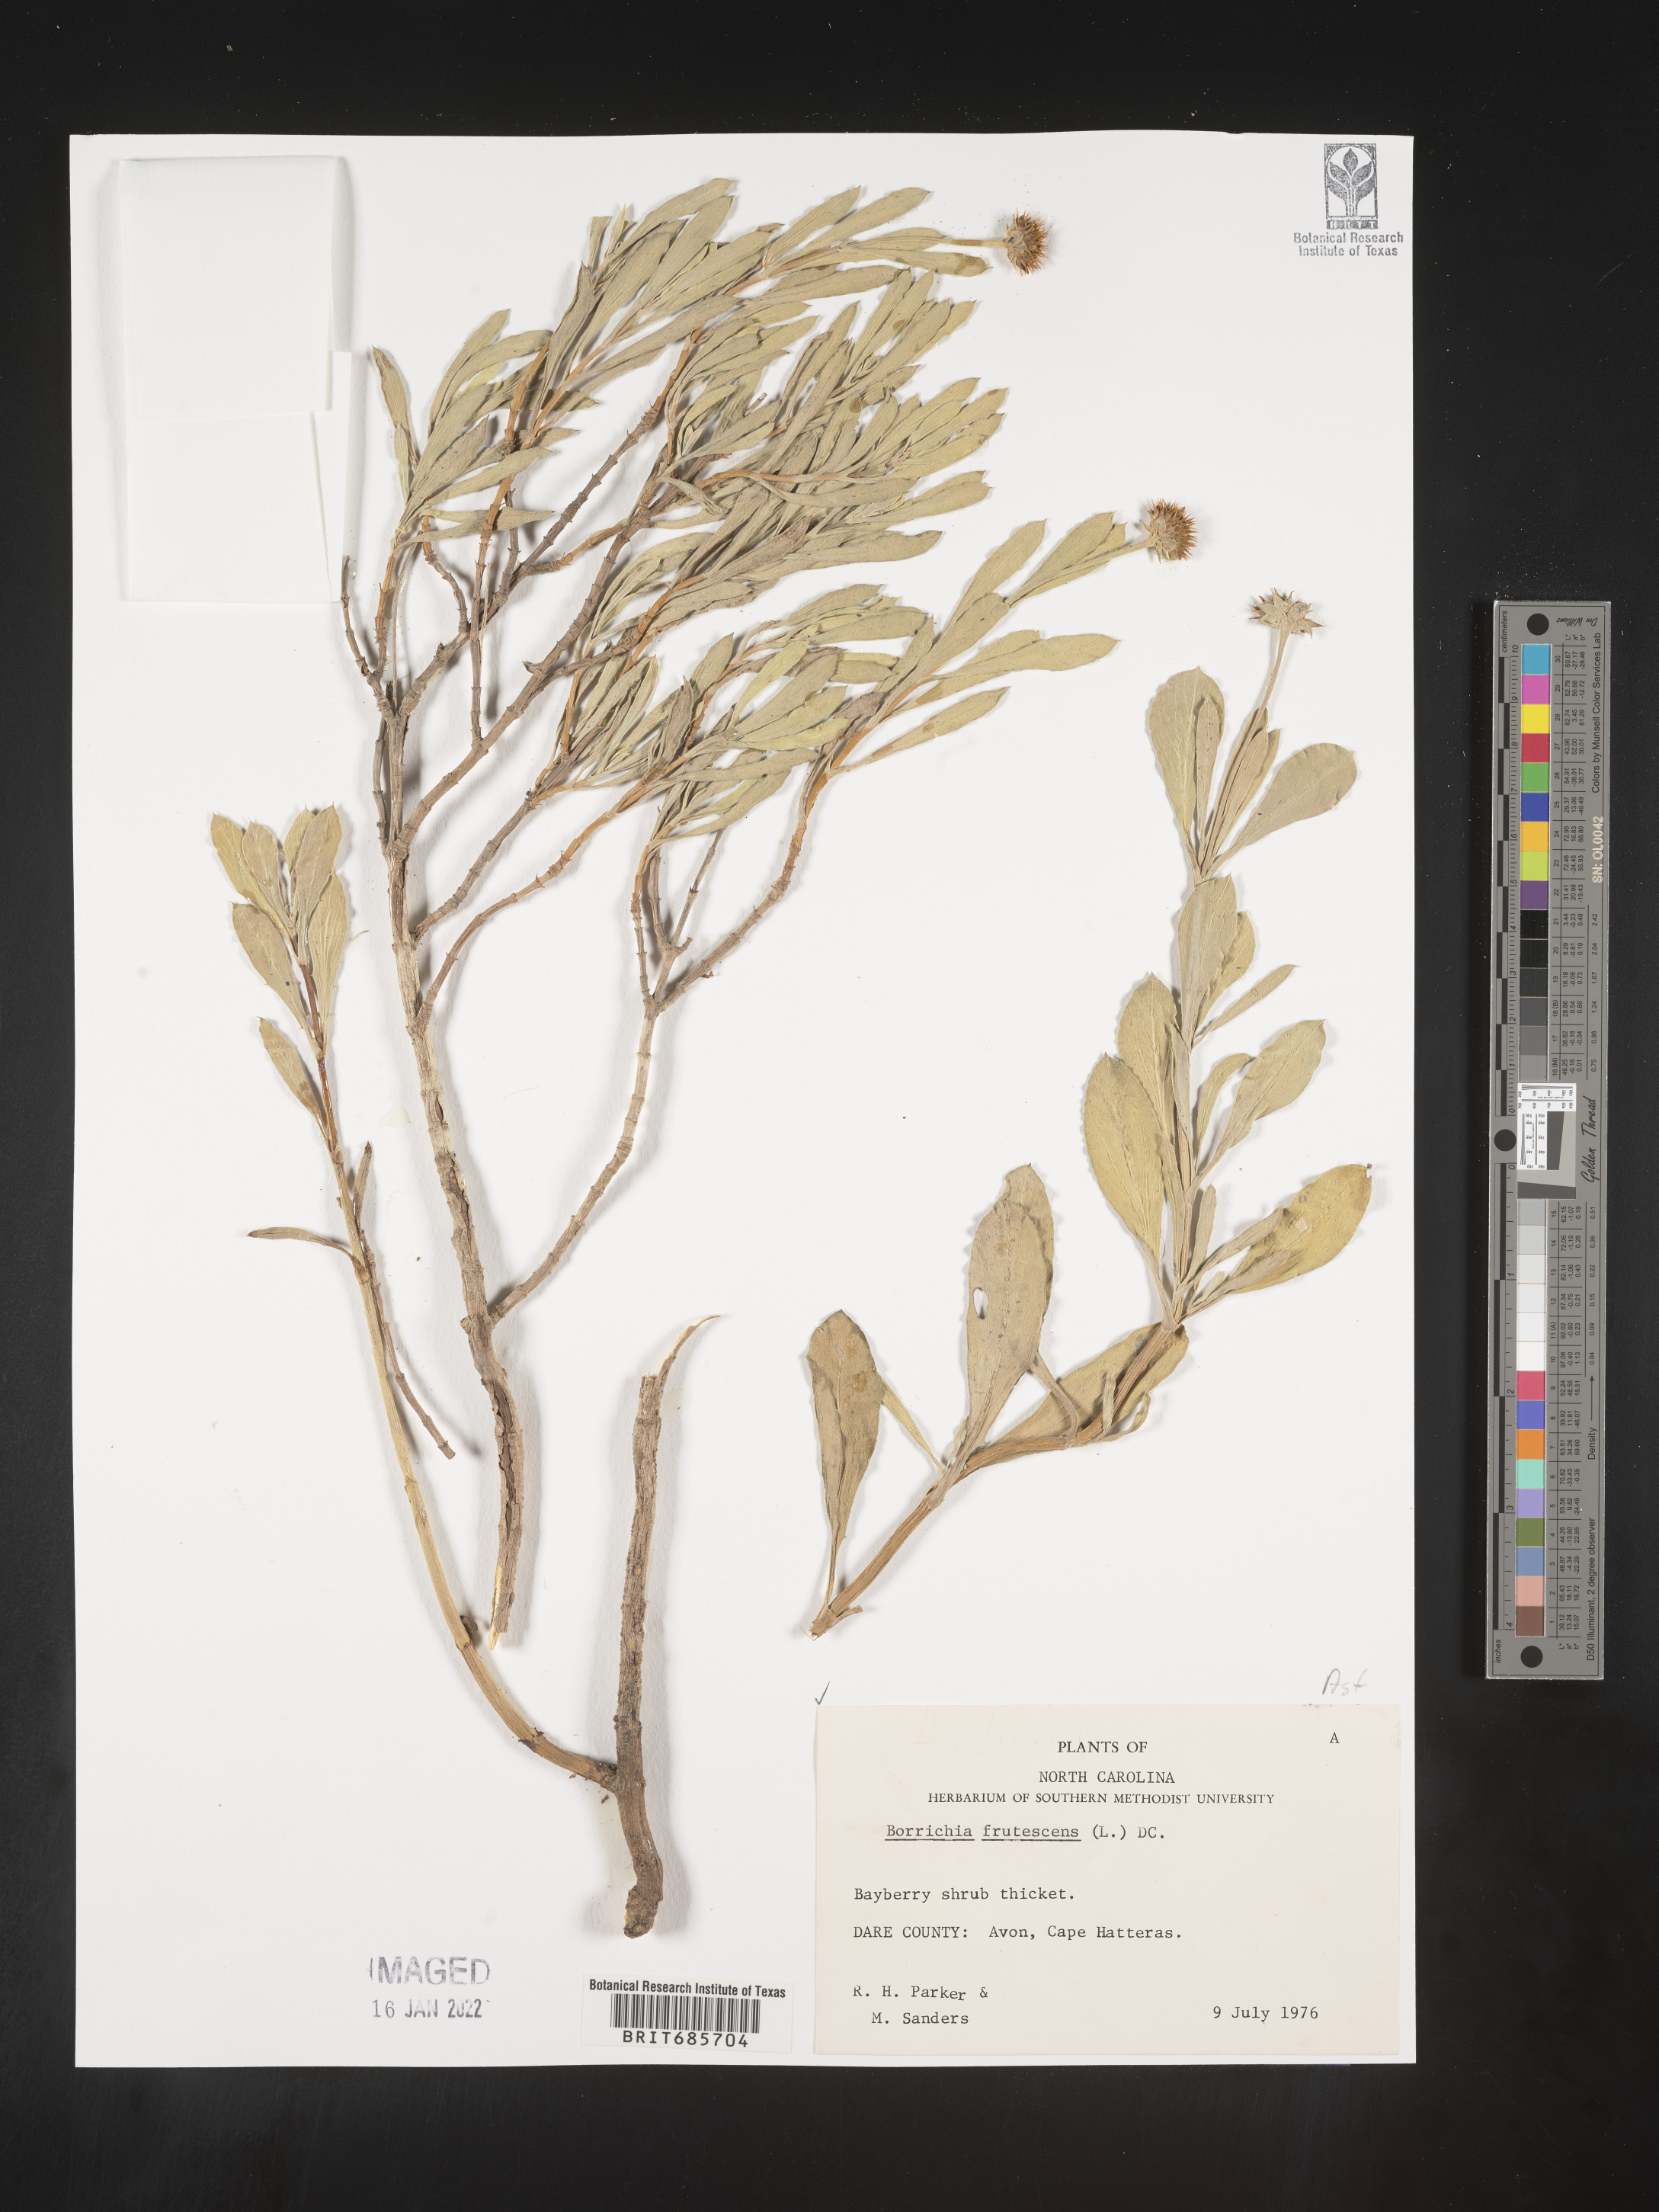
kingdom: Plantae
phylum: Tracheophyta
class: Magnoliopsida
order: Asterales
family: Asteraceae
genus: Borrichia
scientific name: Borrichia frutescens
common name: Sea oxeye
